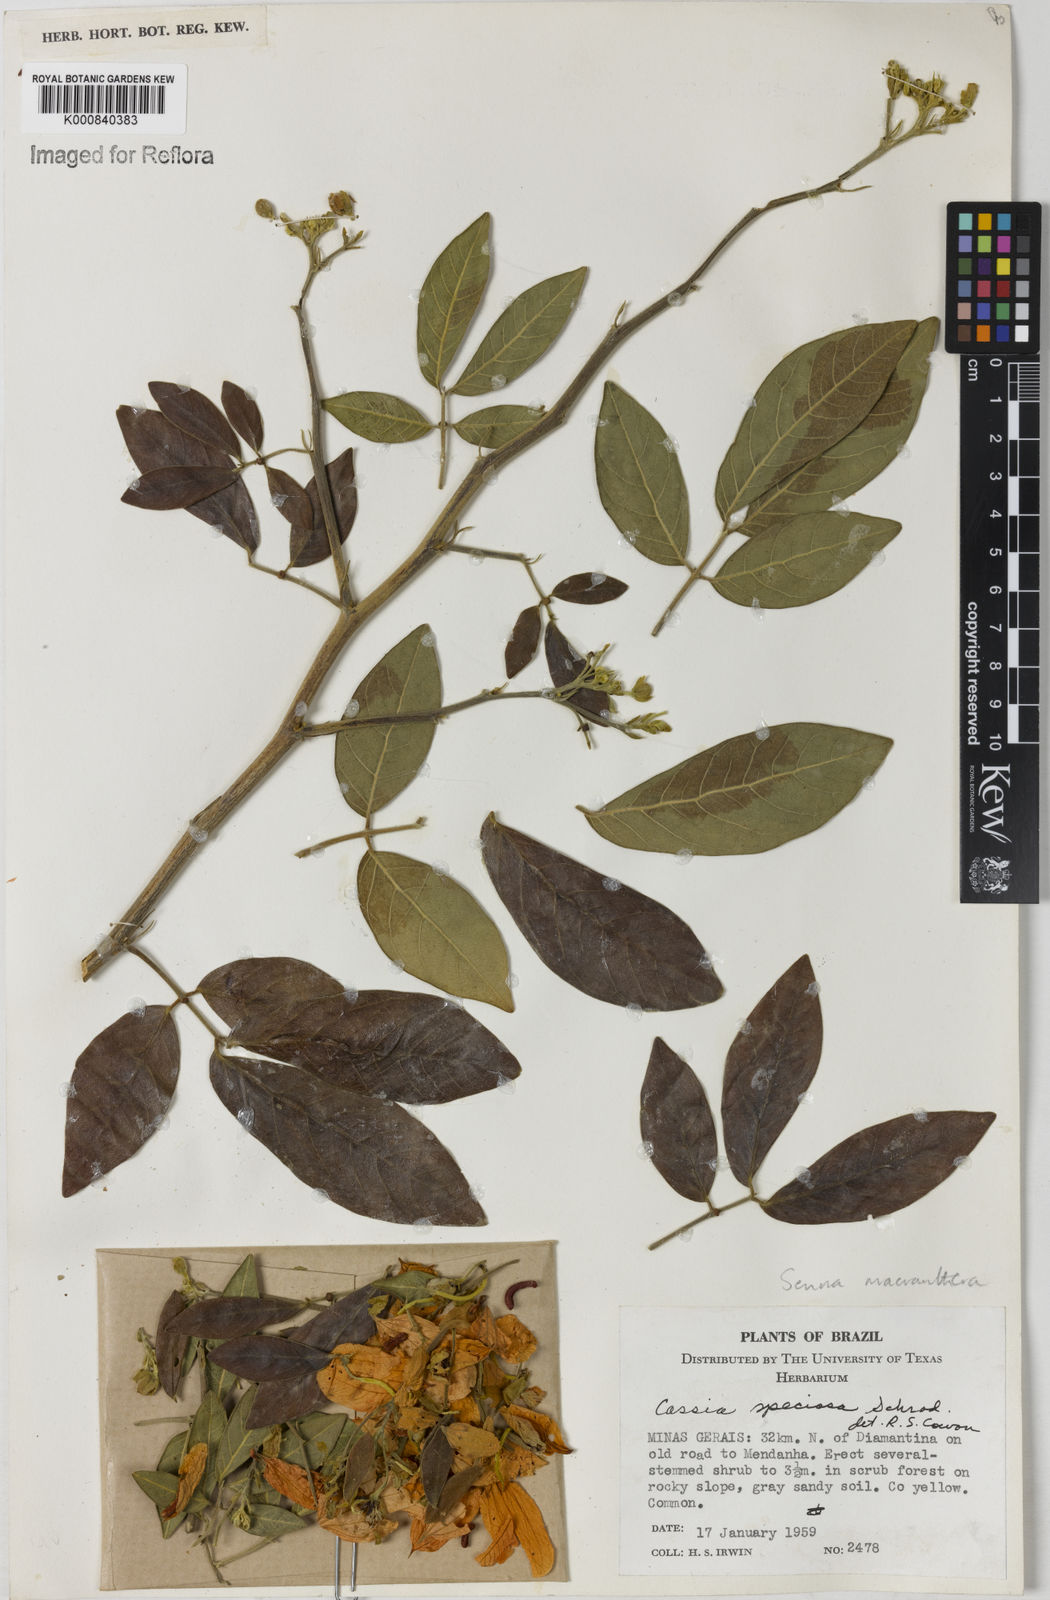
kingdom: Plantae
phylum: Tracheophyta
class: Magnoliopsida
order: Fabales
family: Fabaceae
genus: Senna
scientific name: Senna macranthera
